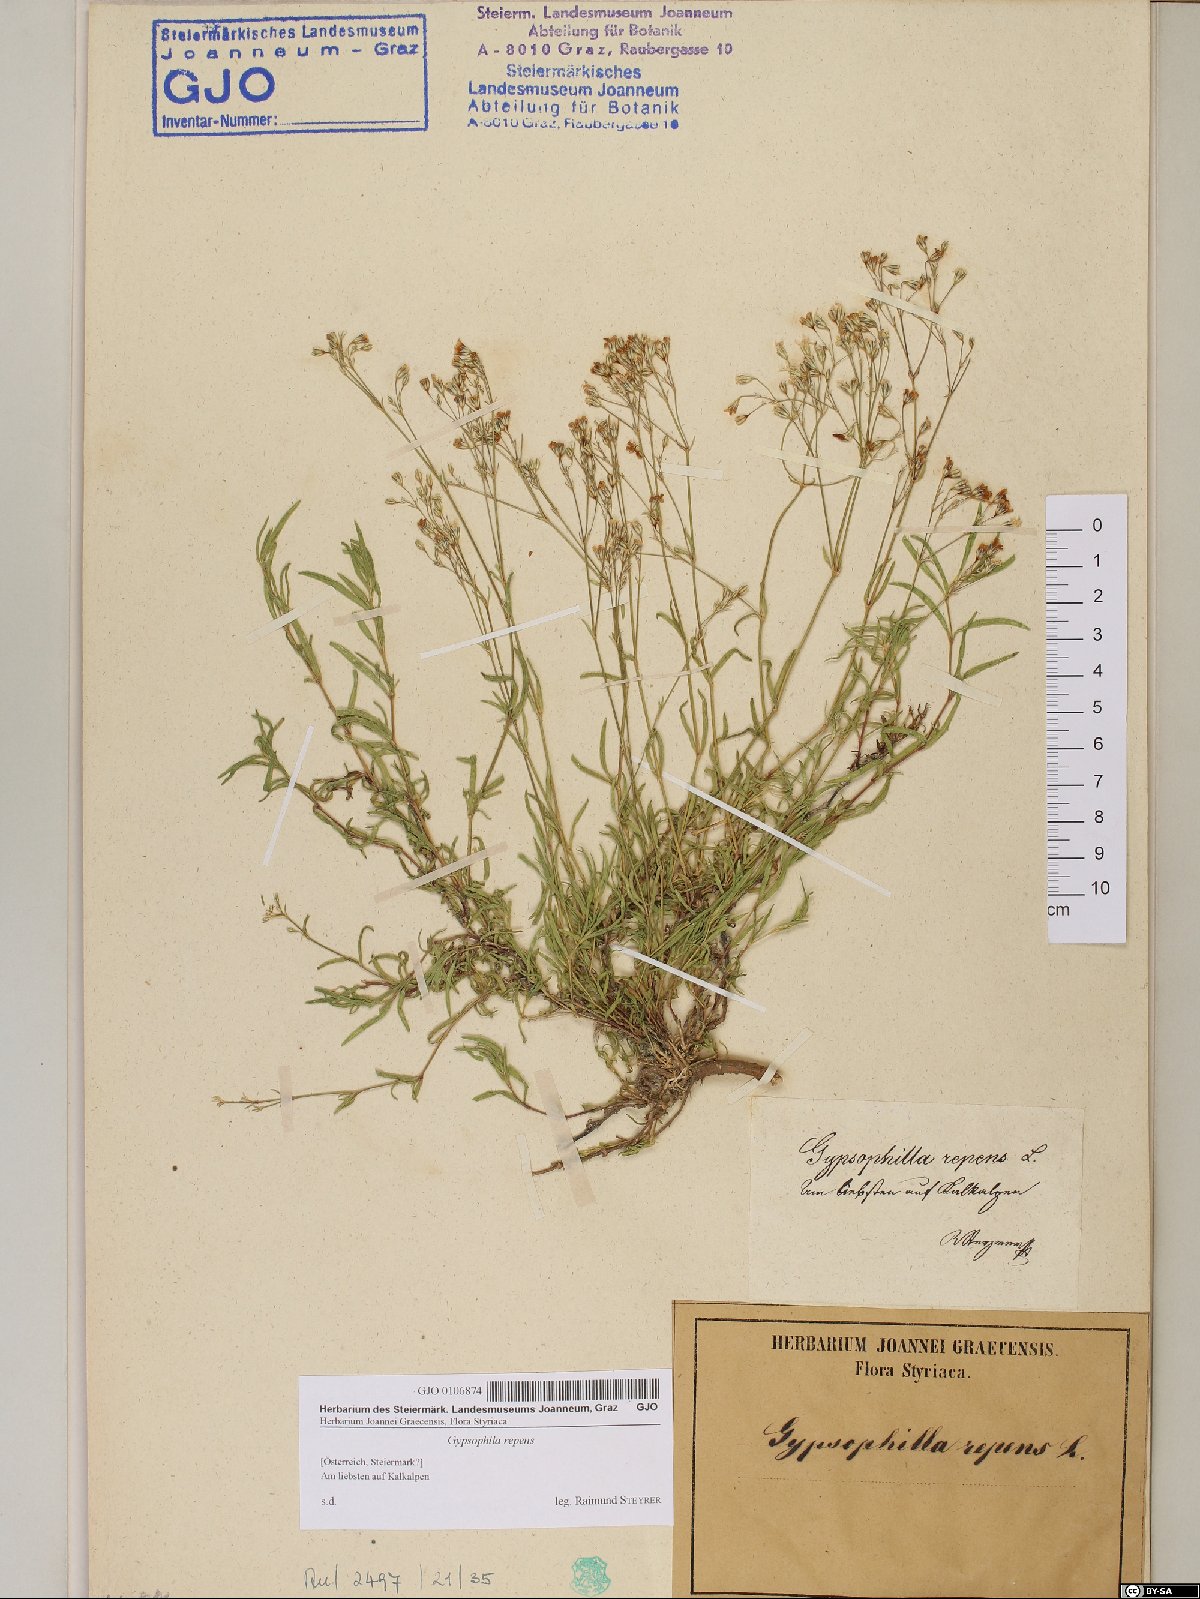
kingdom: Plantae
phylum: Tracheophyta
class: Magnoliopsida
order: Caryophyllales
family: Caryophyllaceae
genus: Gypsophila
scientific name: Gypsophila repens
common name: Creeping baby's-breath
